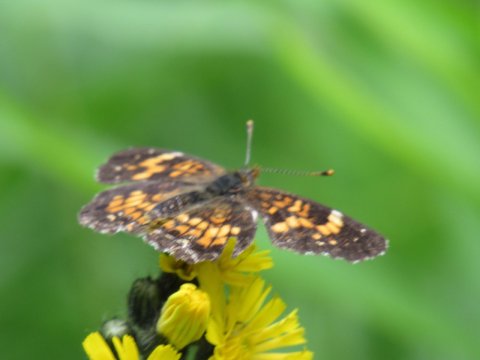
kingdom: Animalia
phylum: Arthropoda
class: Insecta
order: Lepidoptera
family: Nymphalidae
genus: Chlosyne
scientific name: Chlosyne harrisii
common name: Harris's Checkerspot
